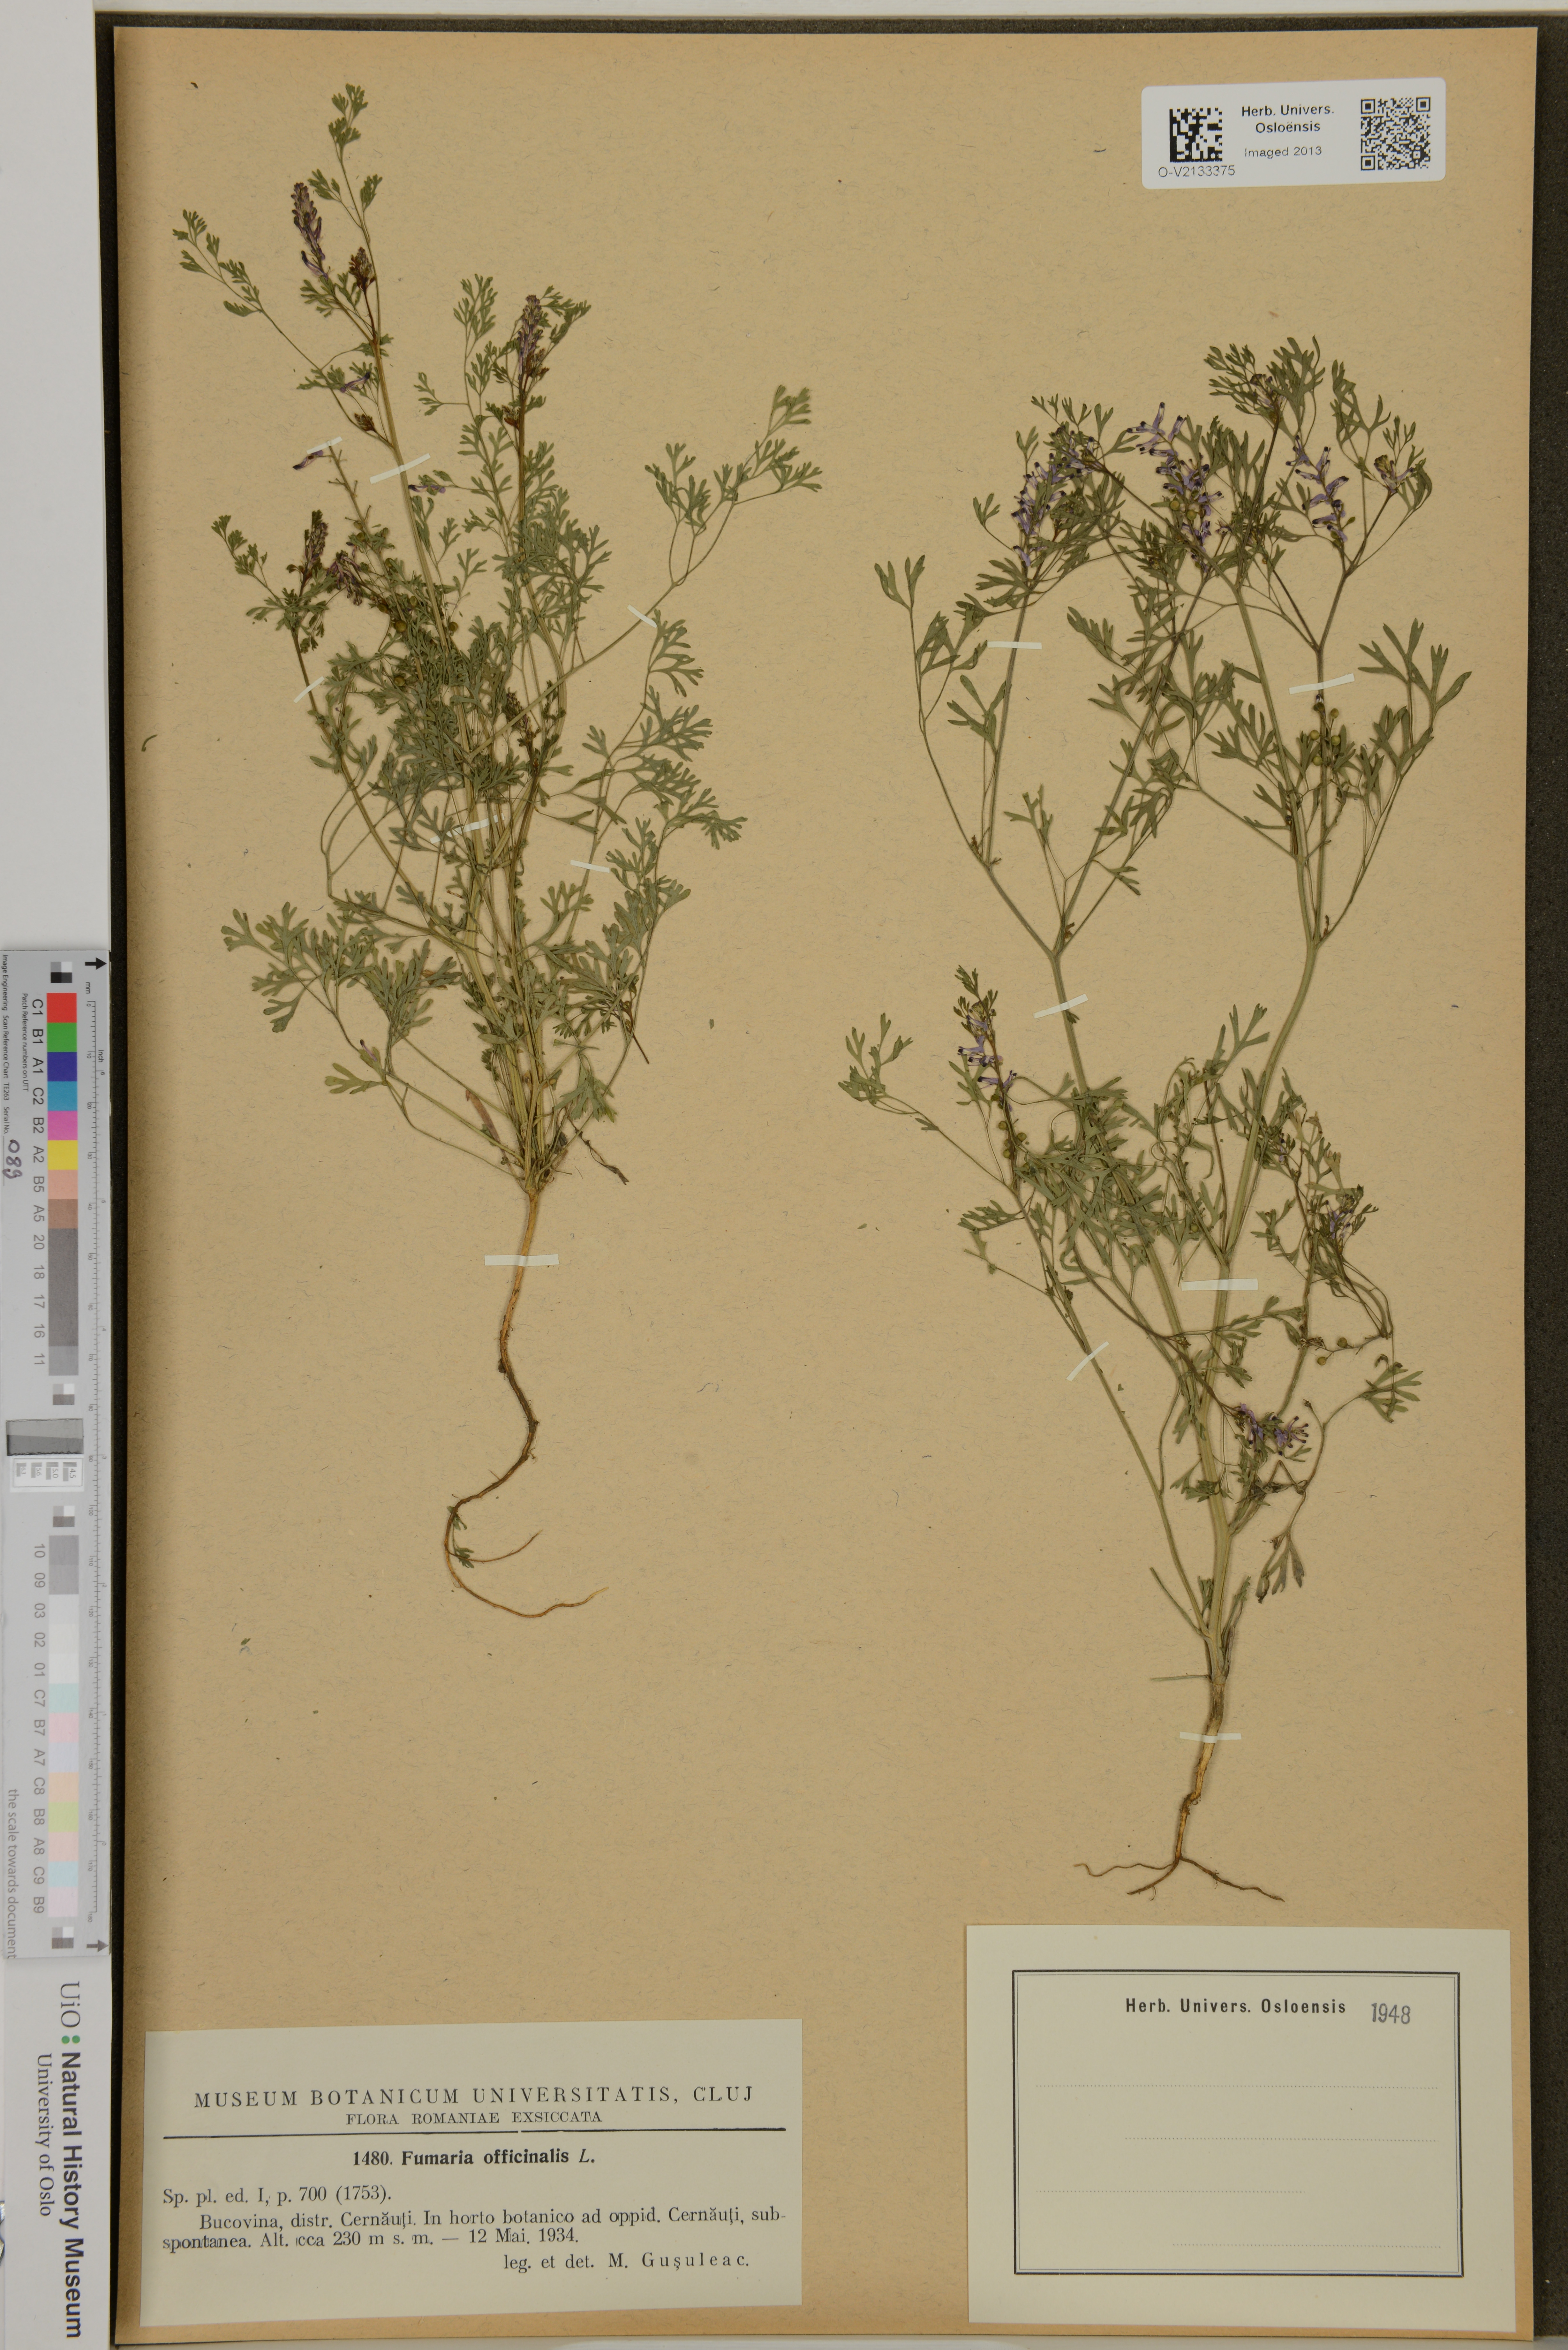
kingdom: Plantae
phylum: Tracheophyta
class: Magnoliopsida
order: Ranunculales
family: Papaveraceae
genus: Fumaria
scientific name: Fumaria officinalis
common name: Common fumitory
